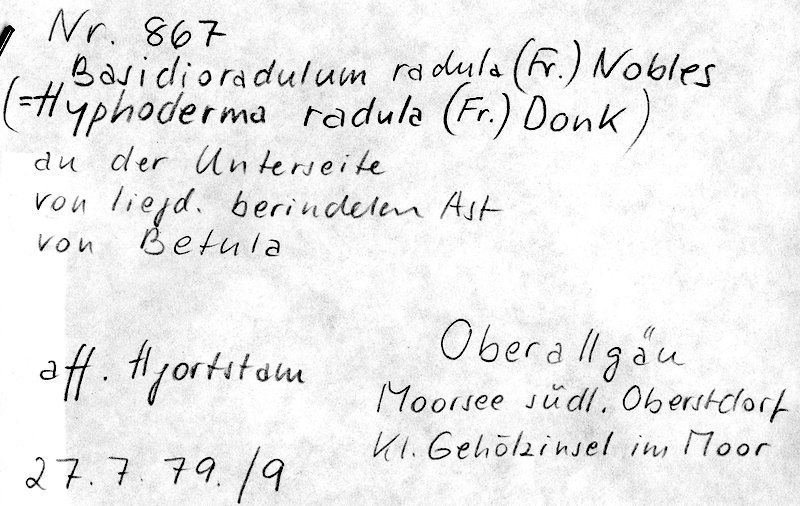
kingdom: Fungi
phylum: Basidiomycota
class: Agaricomycetes
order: Hymenochaetales
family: Schizoporaceae
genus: Xylodon
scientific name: Xylodon radula
